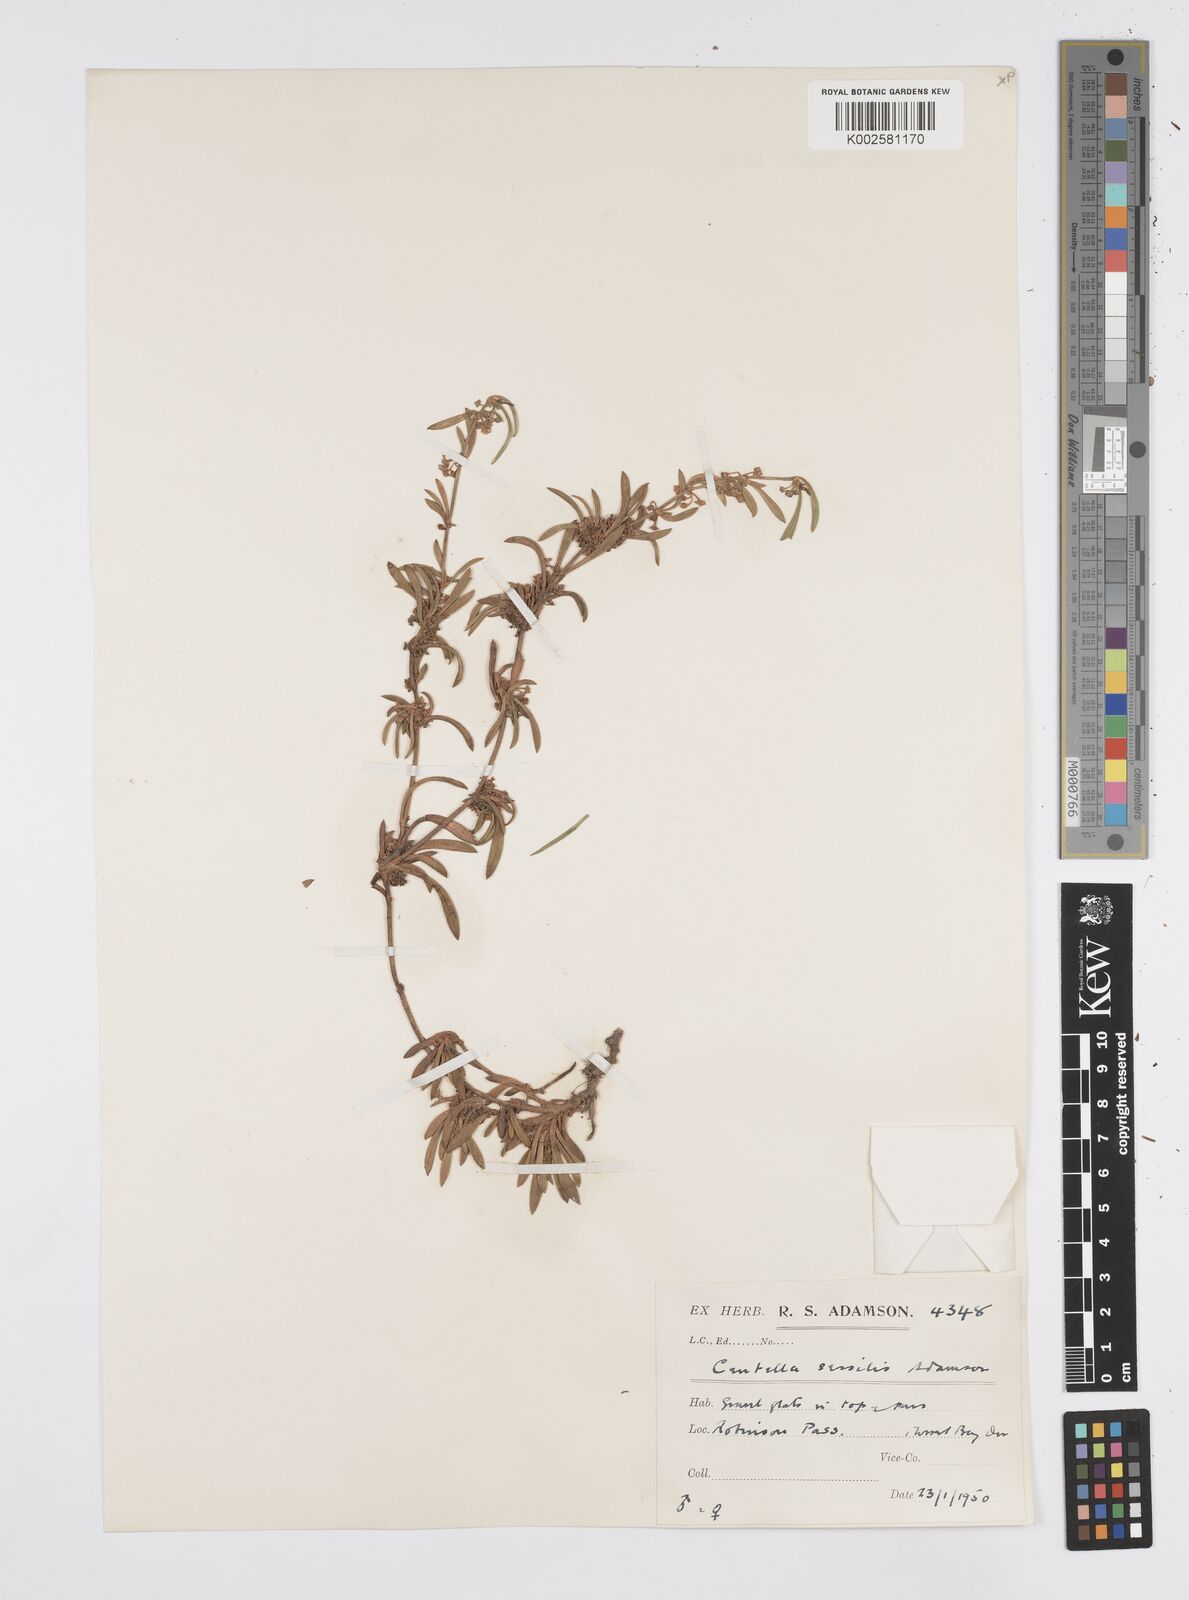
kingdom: Plantae
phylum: Tracheophyta
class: Magnoliopsida
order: Apiales
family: Apiaceae
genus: Centella
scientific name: Centella sessilis
